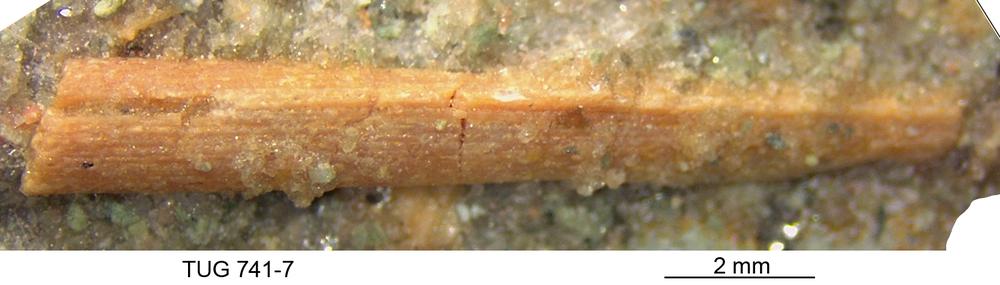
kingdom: Animalia
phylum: Chordata
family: Acanthodidae
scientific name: Acanthodidae
